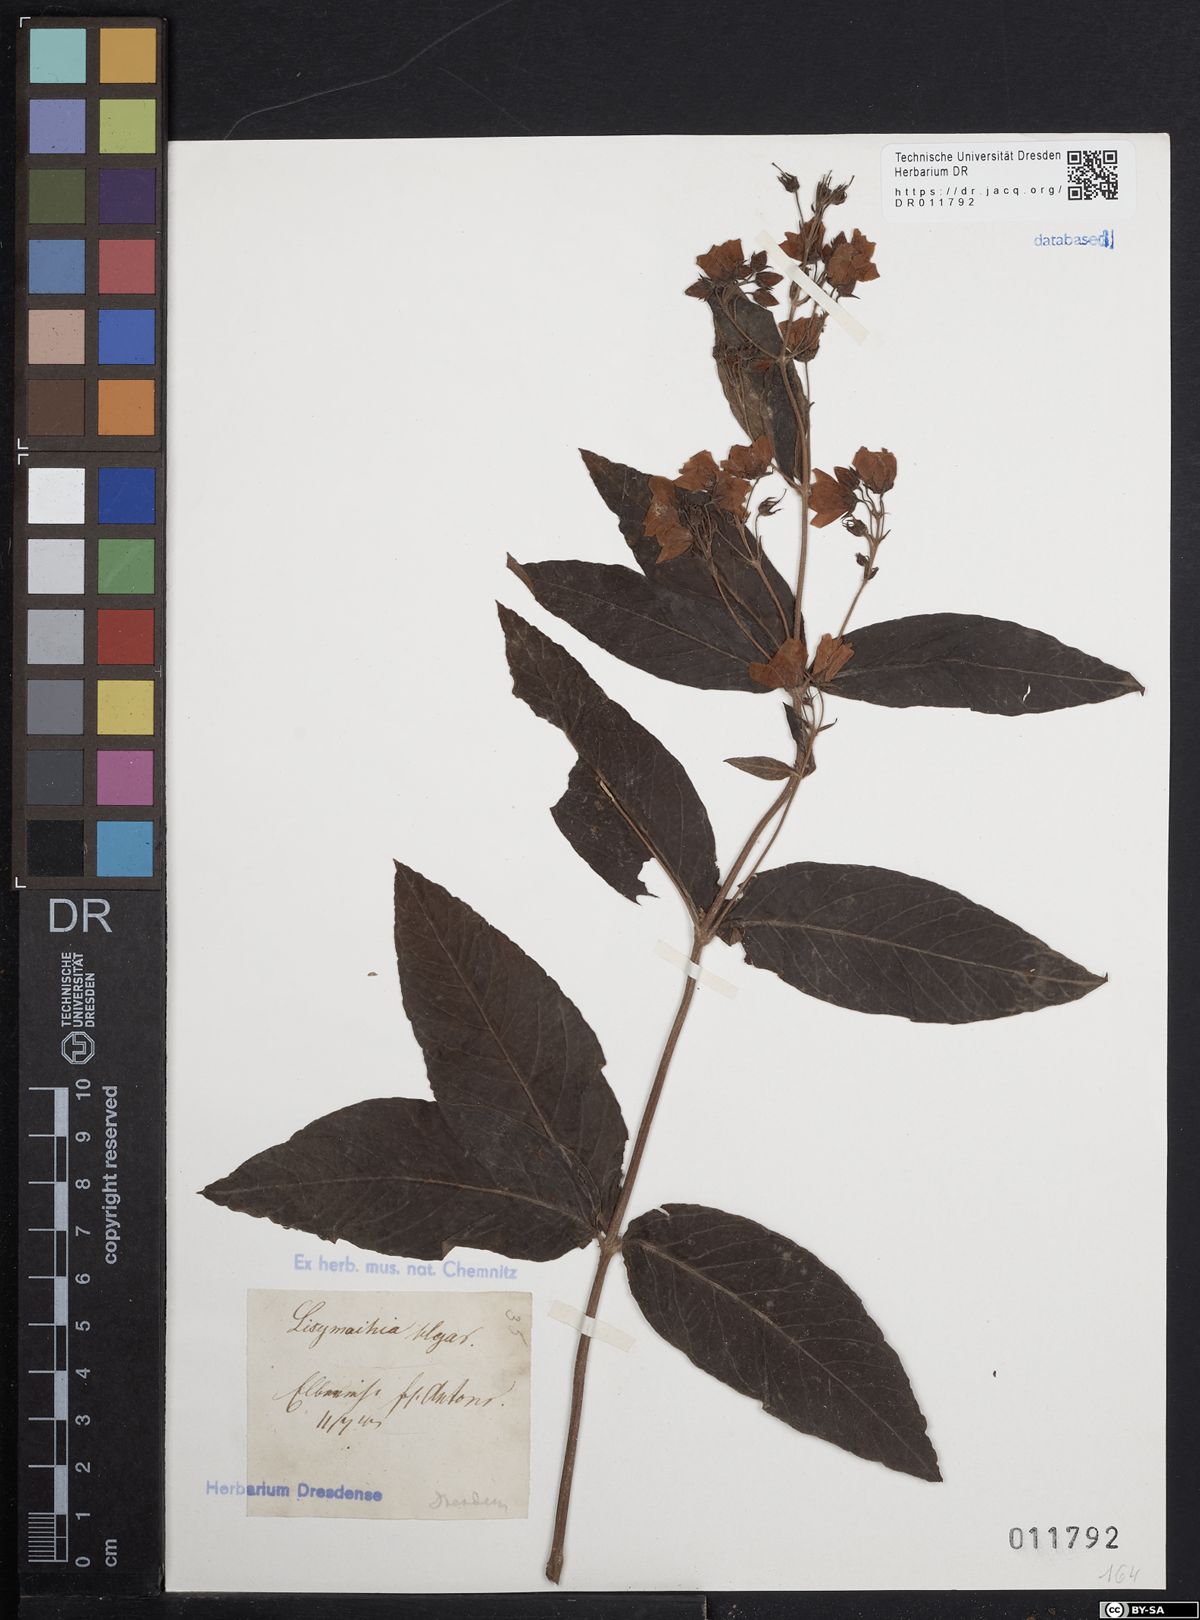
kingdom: Plantae
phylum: Tracheophyta
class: Magnoliopsida
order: Ericales
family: Primulaceae
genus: Lysimachia
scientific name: Lysimachia vulgaris
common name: Yellow loosestrife
